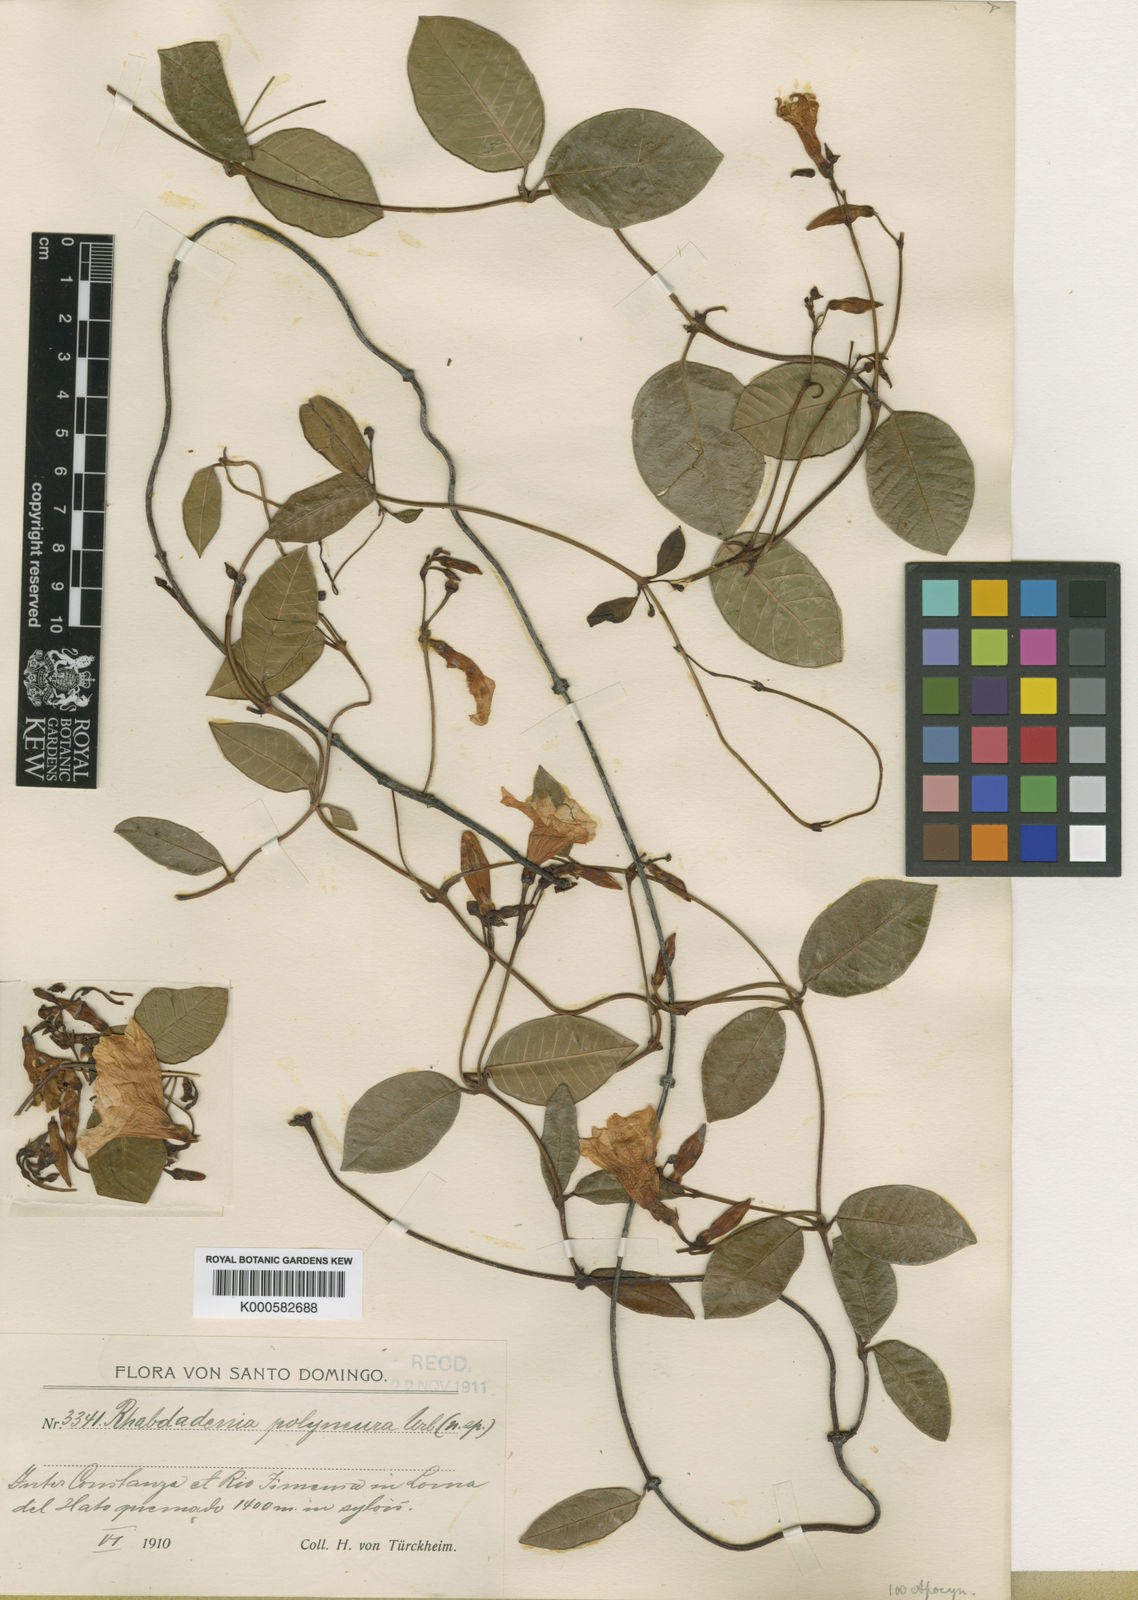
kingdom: Plantae
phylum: Tracheophyta
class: Magnoliopsida
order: Gentianales
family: Apocynaceae
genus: Odontadenia
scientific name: Odontadenia polyneura
